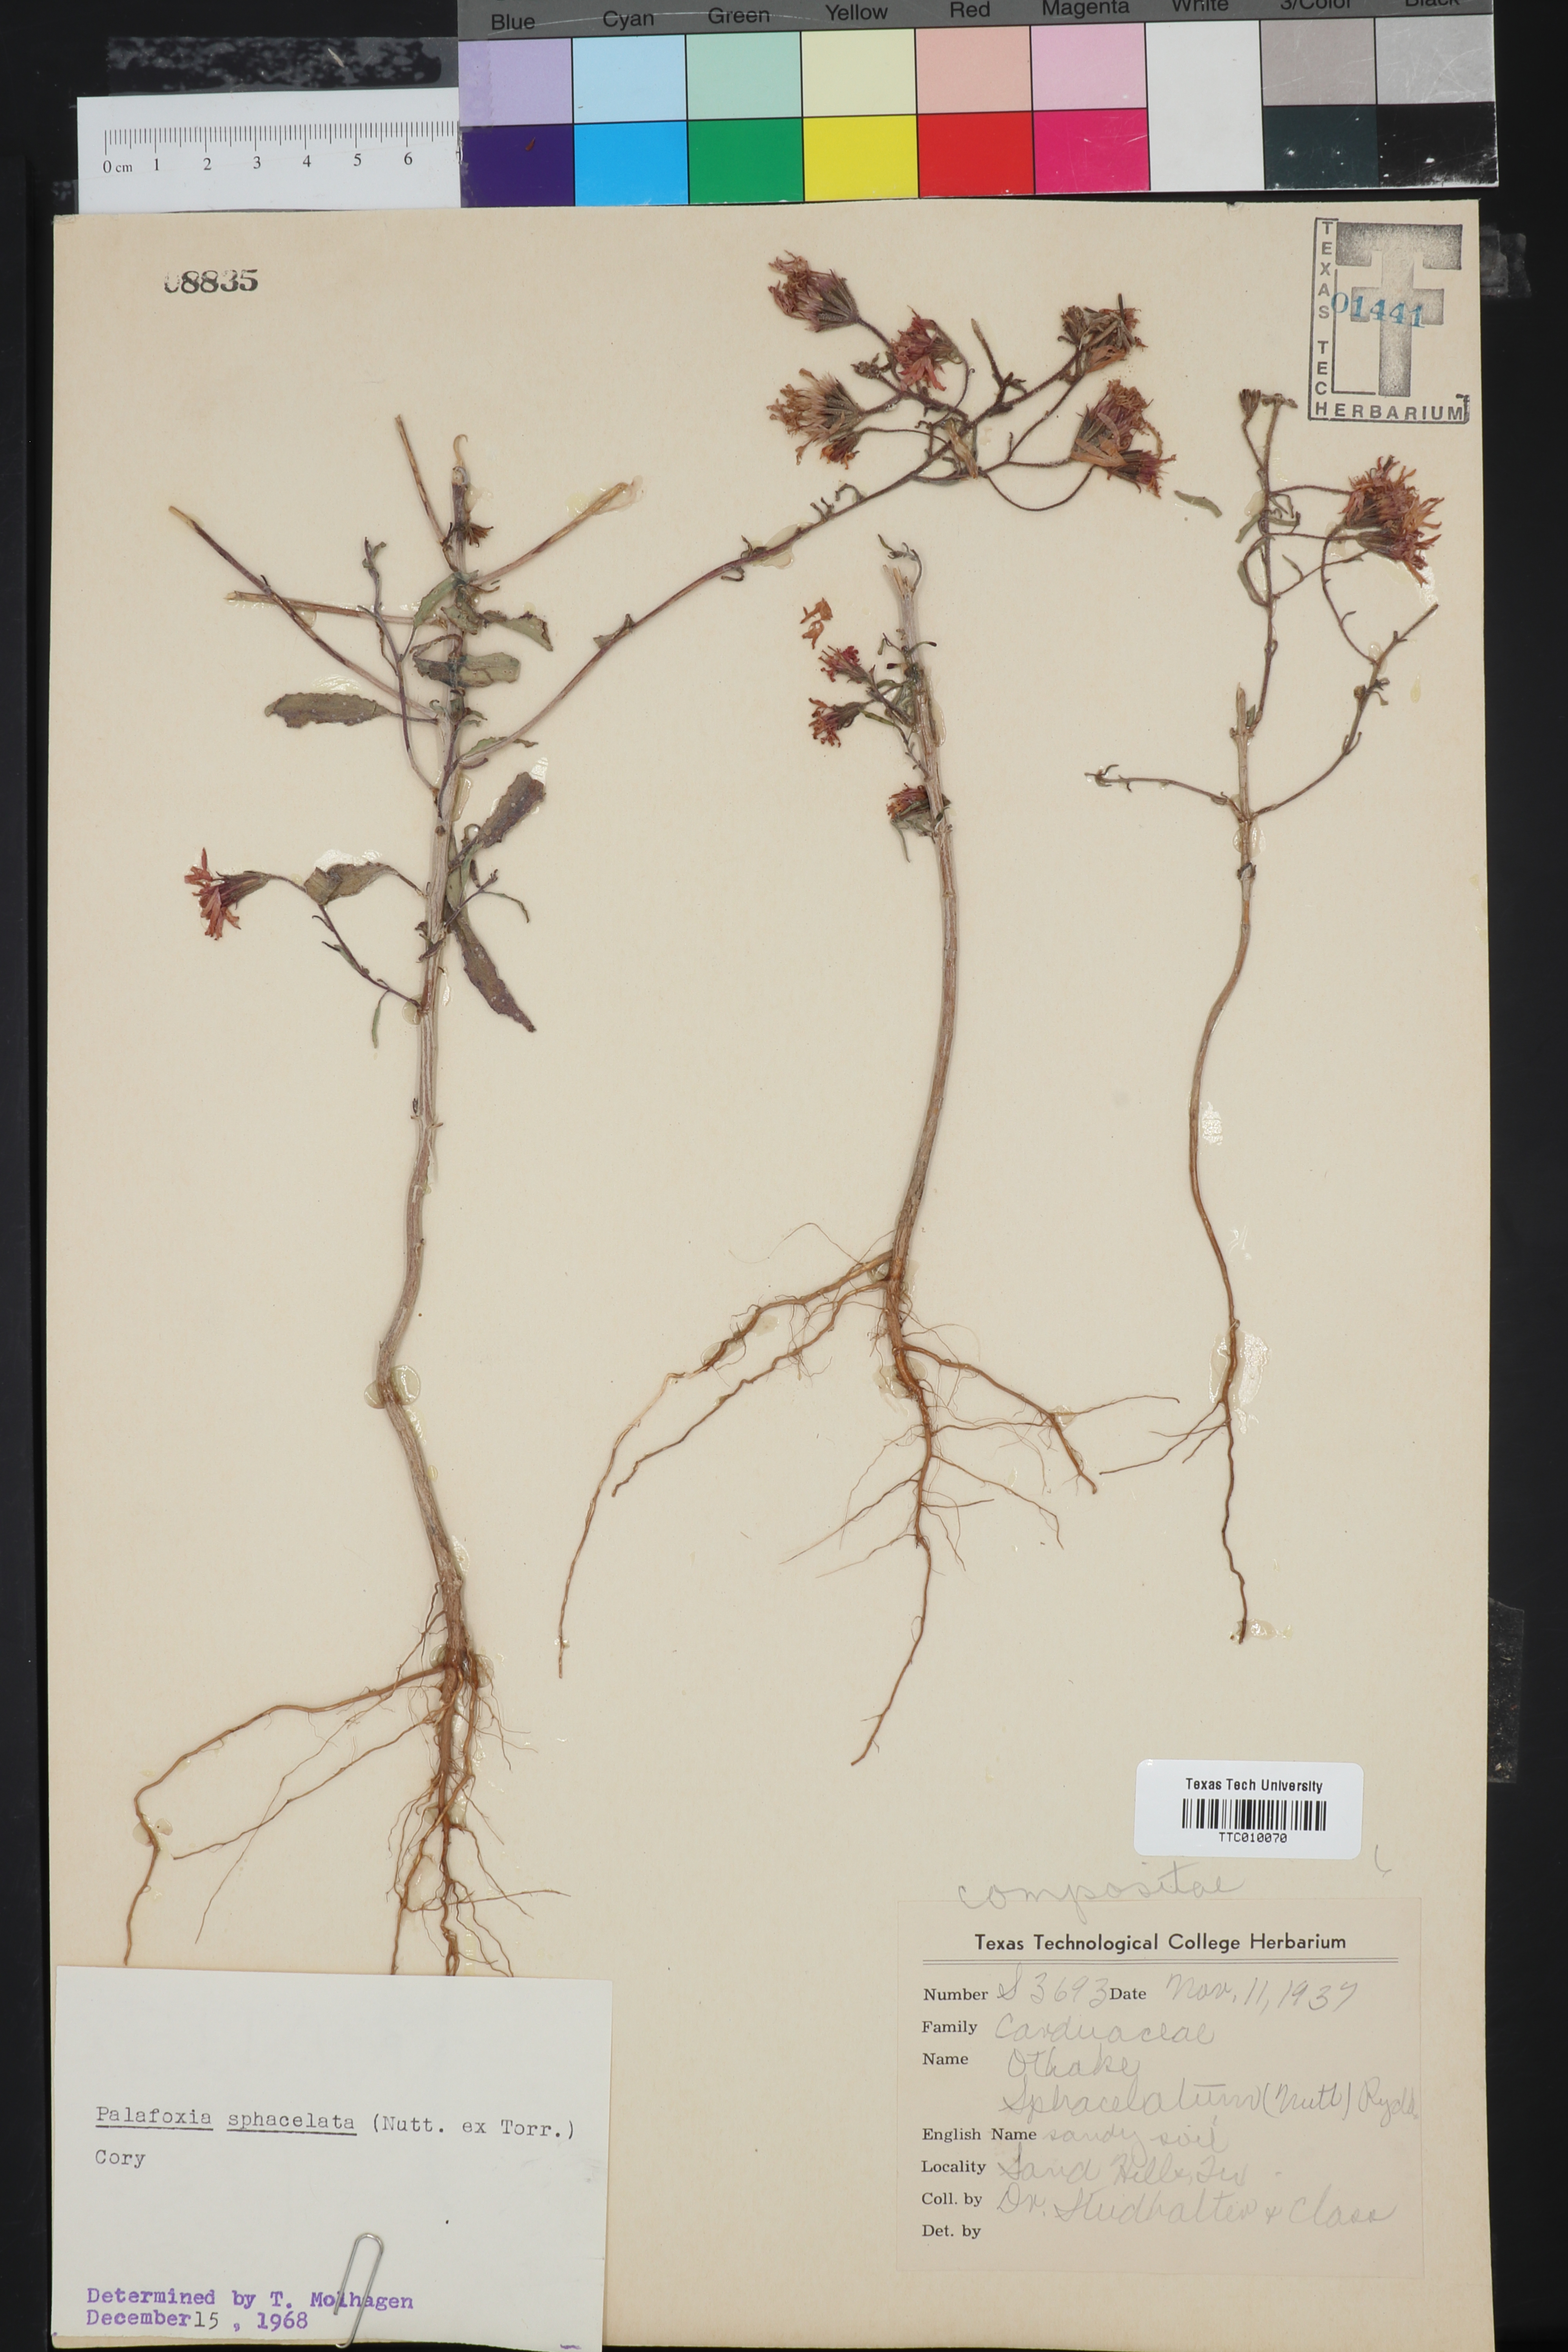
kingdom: Plantae
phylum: Tracheophyta
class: Magnoliopsida
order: Asterales
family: Asteraceae
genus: Palafoxia
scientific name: Palafoxia sphacelata
